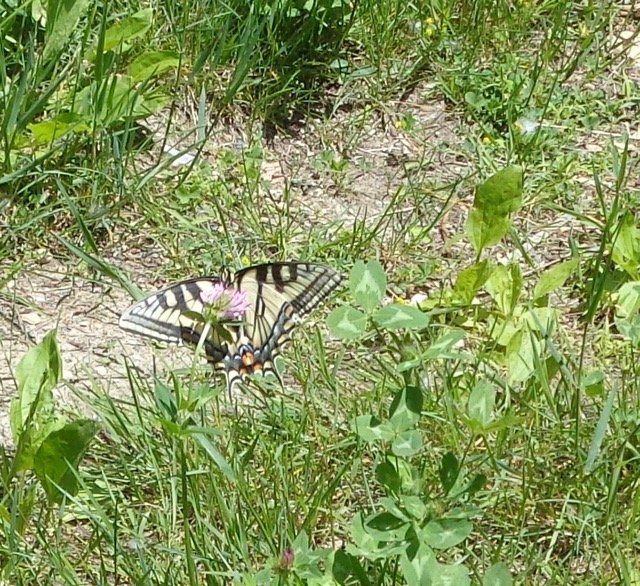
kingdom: Animalia
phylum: Arthropoda
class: Insecta
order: Lepidoptera
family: Papilionidae
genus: Pterourus
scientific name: Pterourus canadensis
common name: Canadian Tiger Swallowtail
